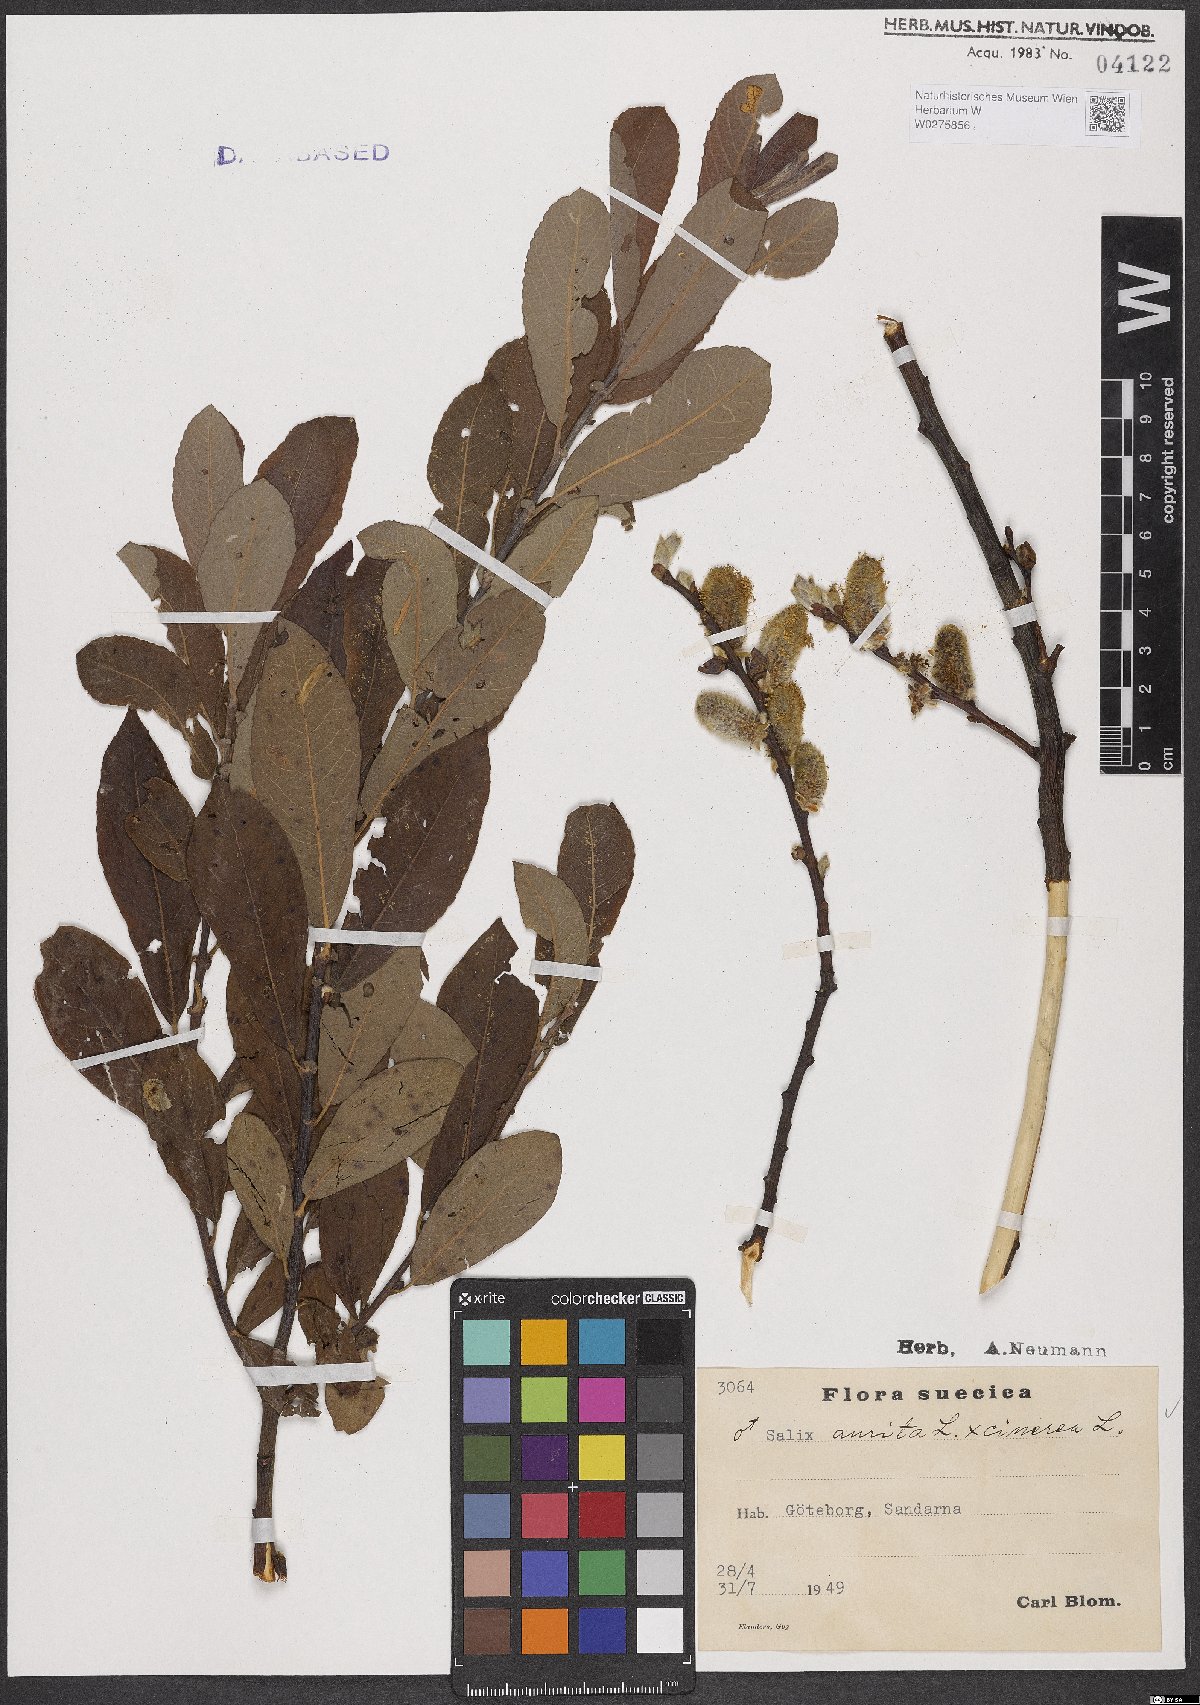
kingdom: Plantae
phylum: Tracheophyta
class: Magnoliopsida
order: Malpighiales
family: Salicaceae
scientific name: Salicaceae
